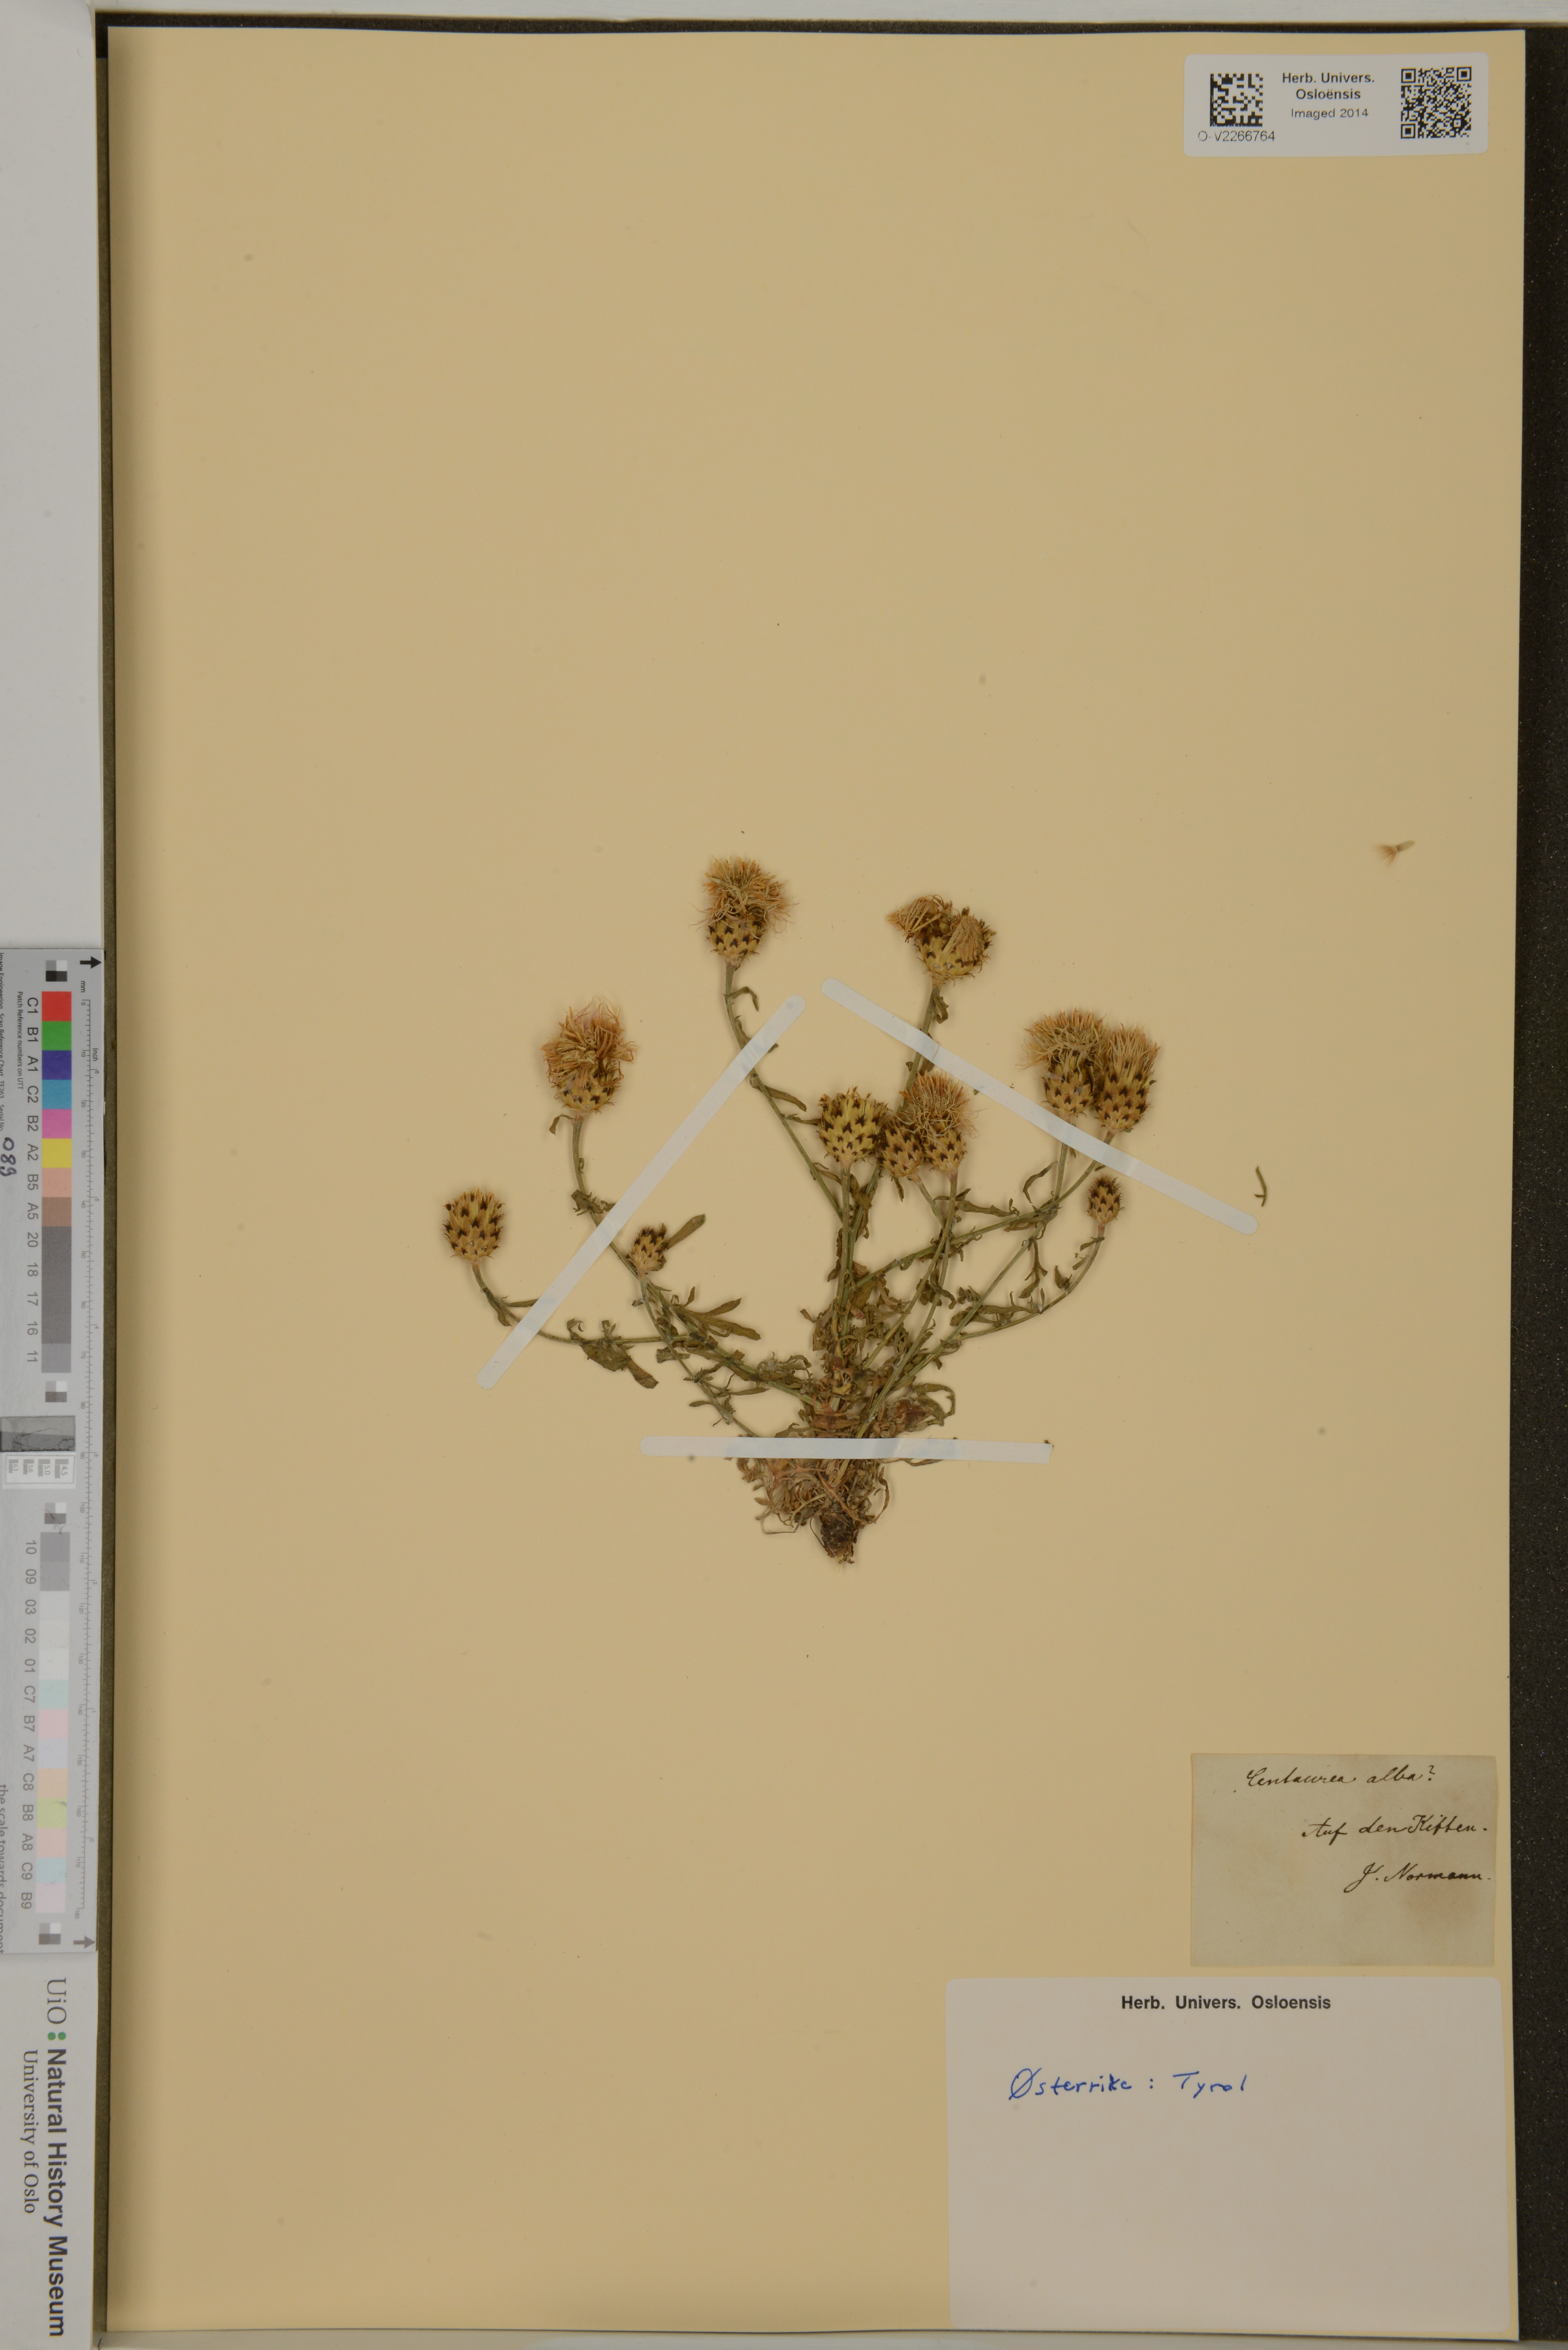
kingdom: Plantae
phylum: Tracheophyta
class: Magnoliopsida
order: Asterales
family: Asteraceae
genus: Centaurea
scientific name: Centaurea alba
